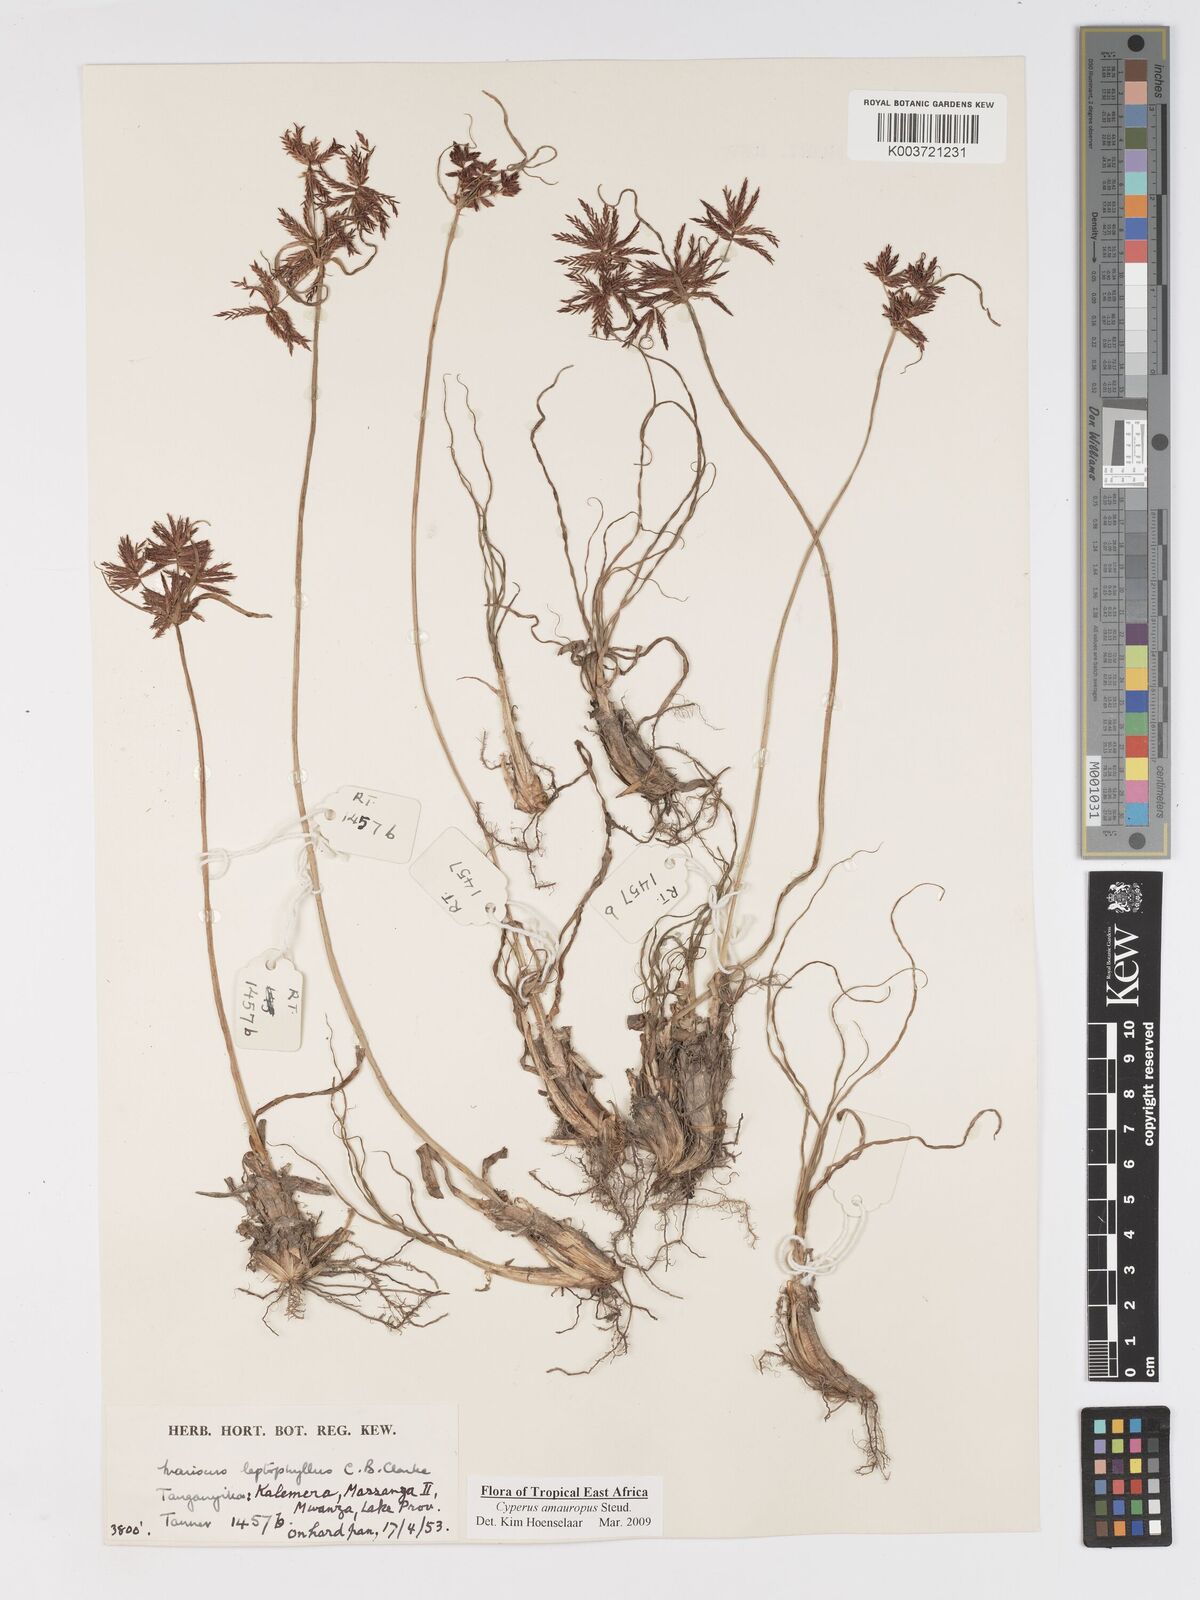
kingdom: Plantae
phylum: Tracheophyta
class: Liliopsida
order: Poales
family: Cyperaceae
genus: Cyperus
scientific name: Cyperus amauropus
